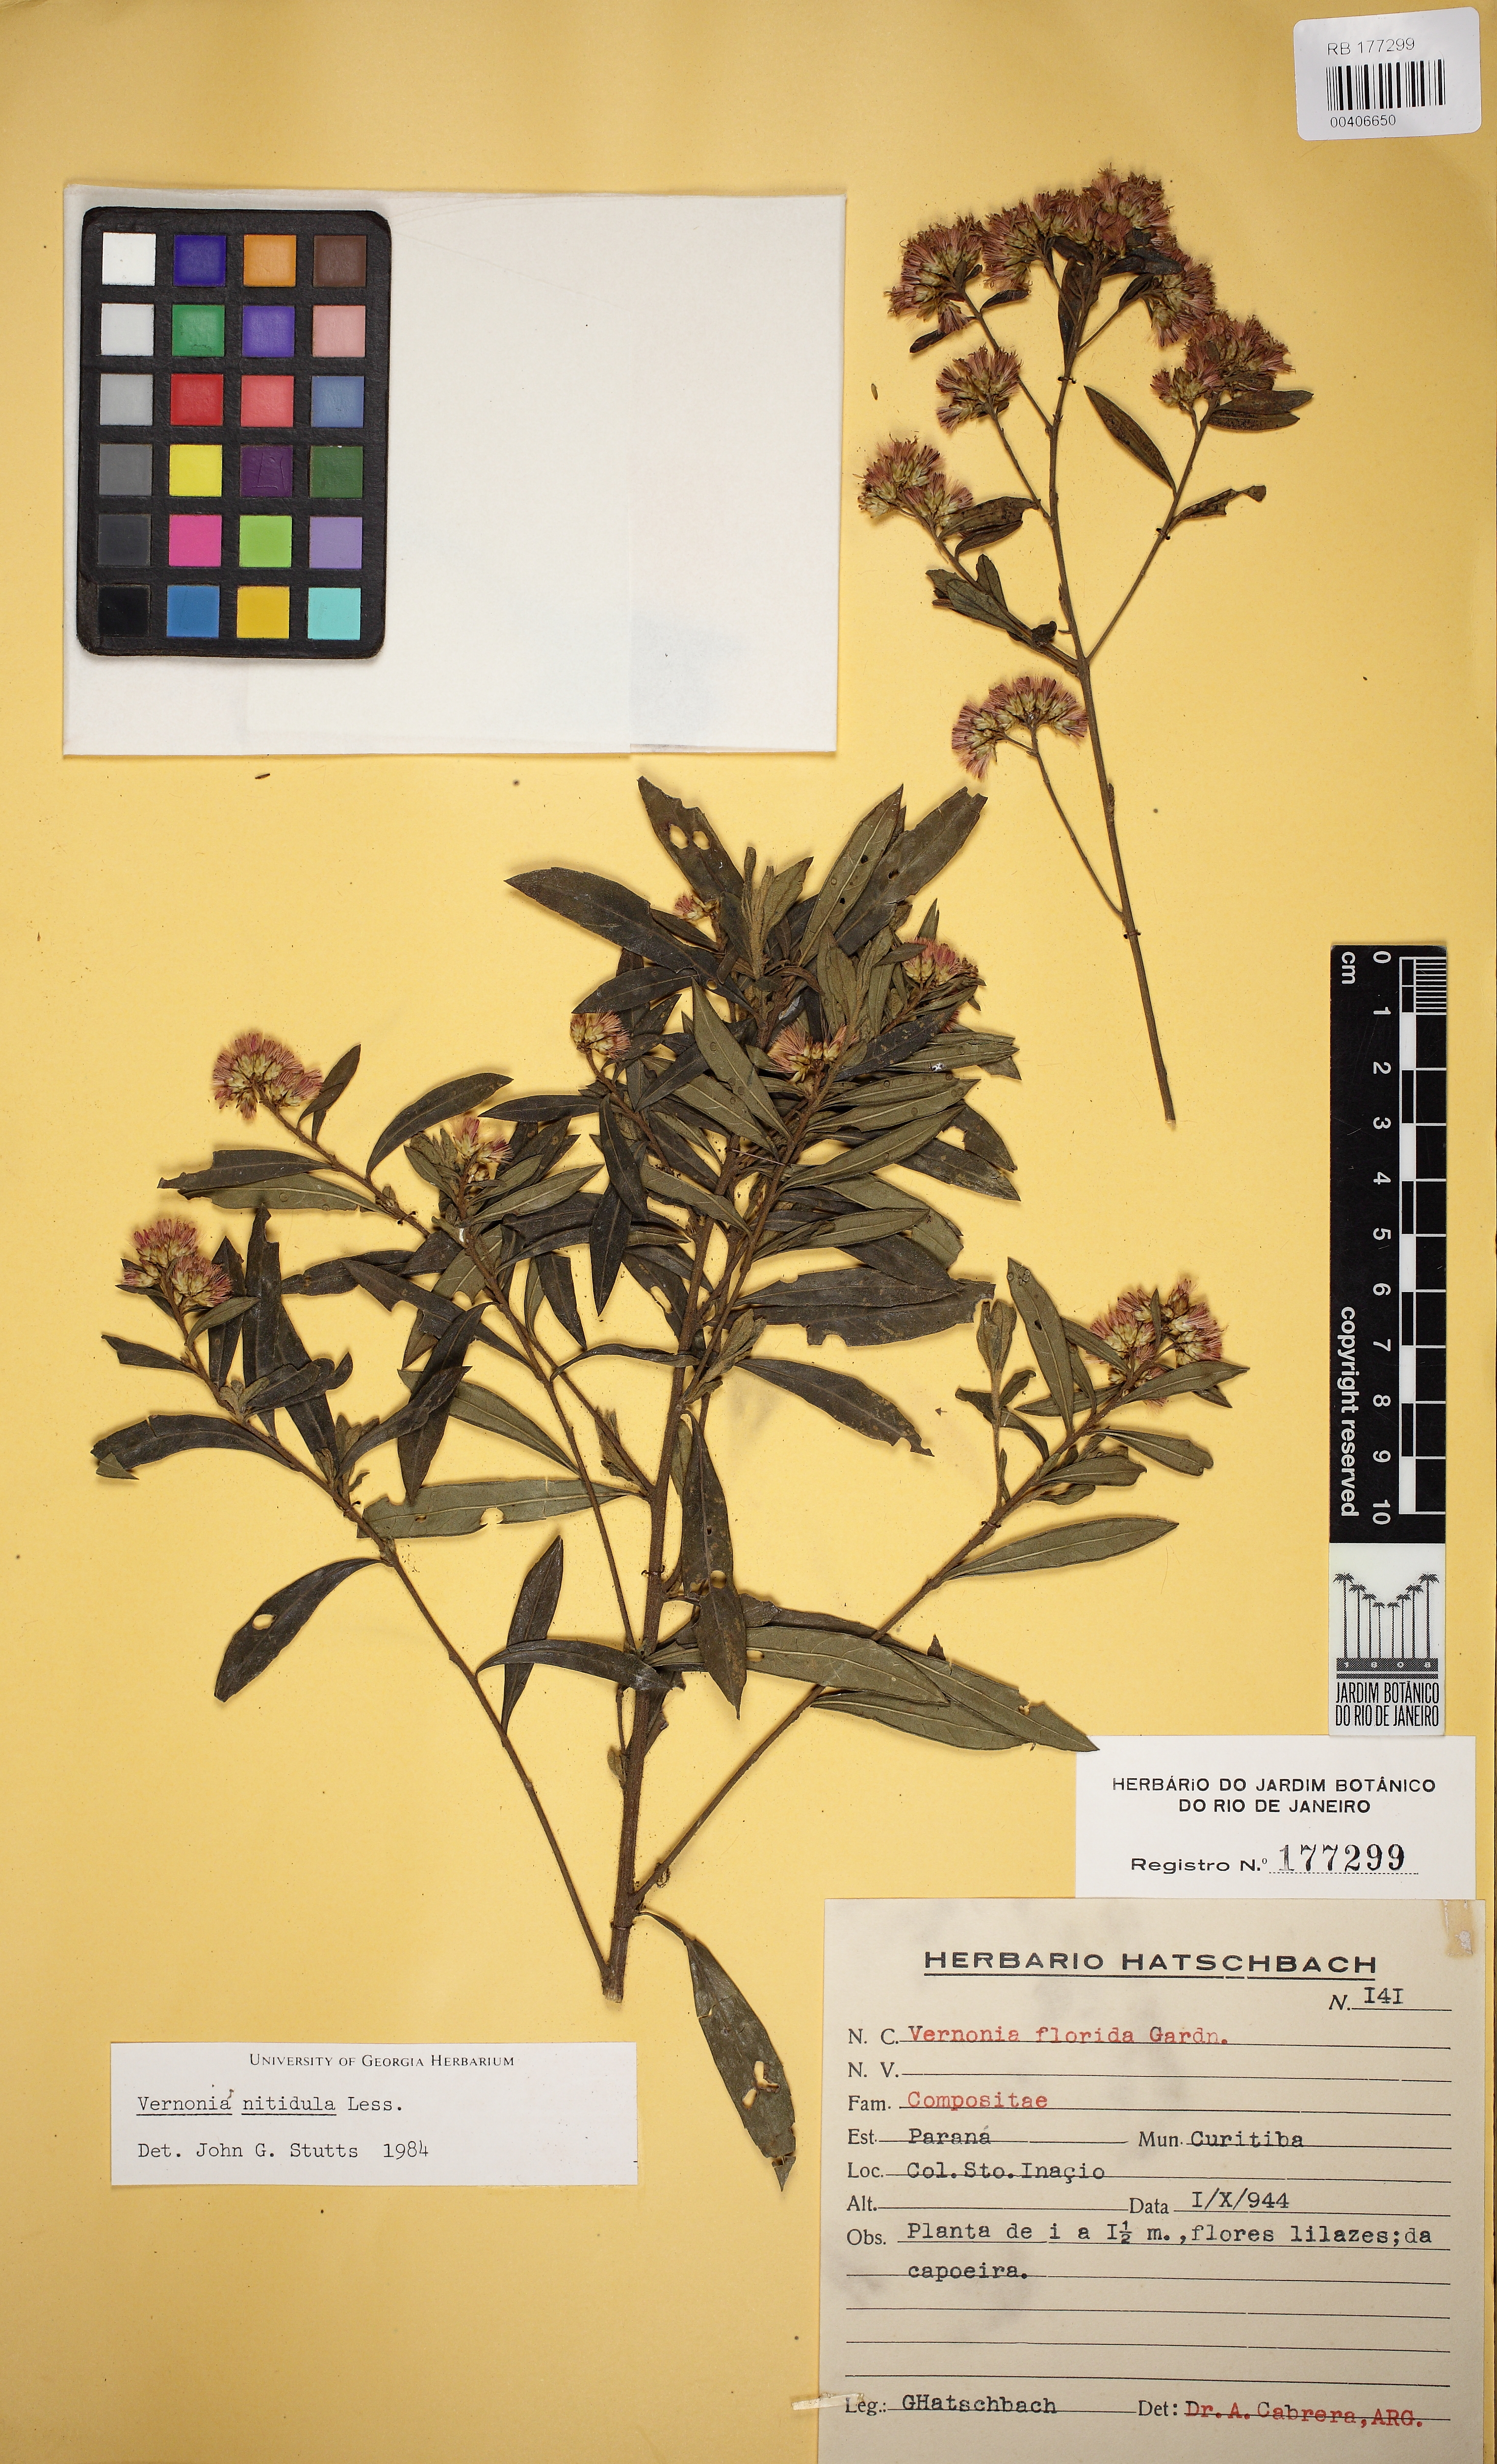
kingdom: Plantae
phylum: Tracheophyta
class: Magnoliopsida
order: Asterales
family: Asteraceae
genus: Vernonanthura
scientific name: Vernonanthura montevidensis
